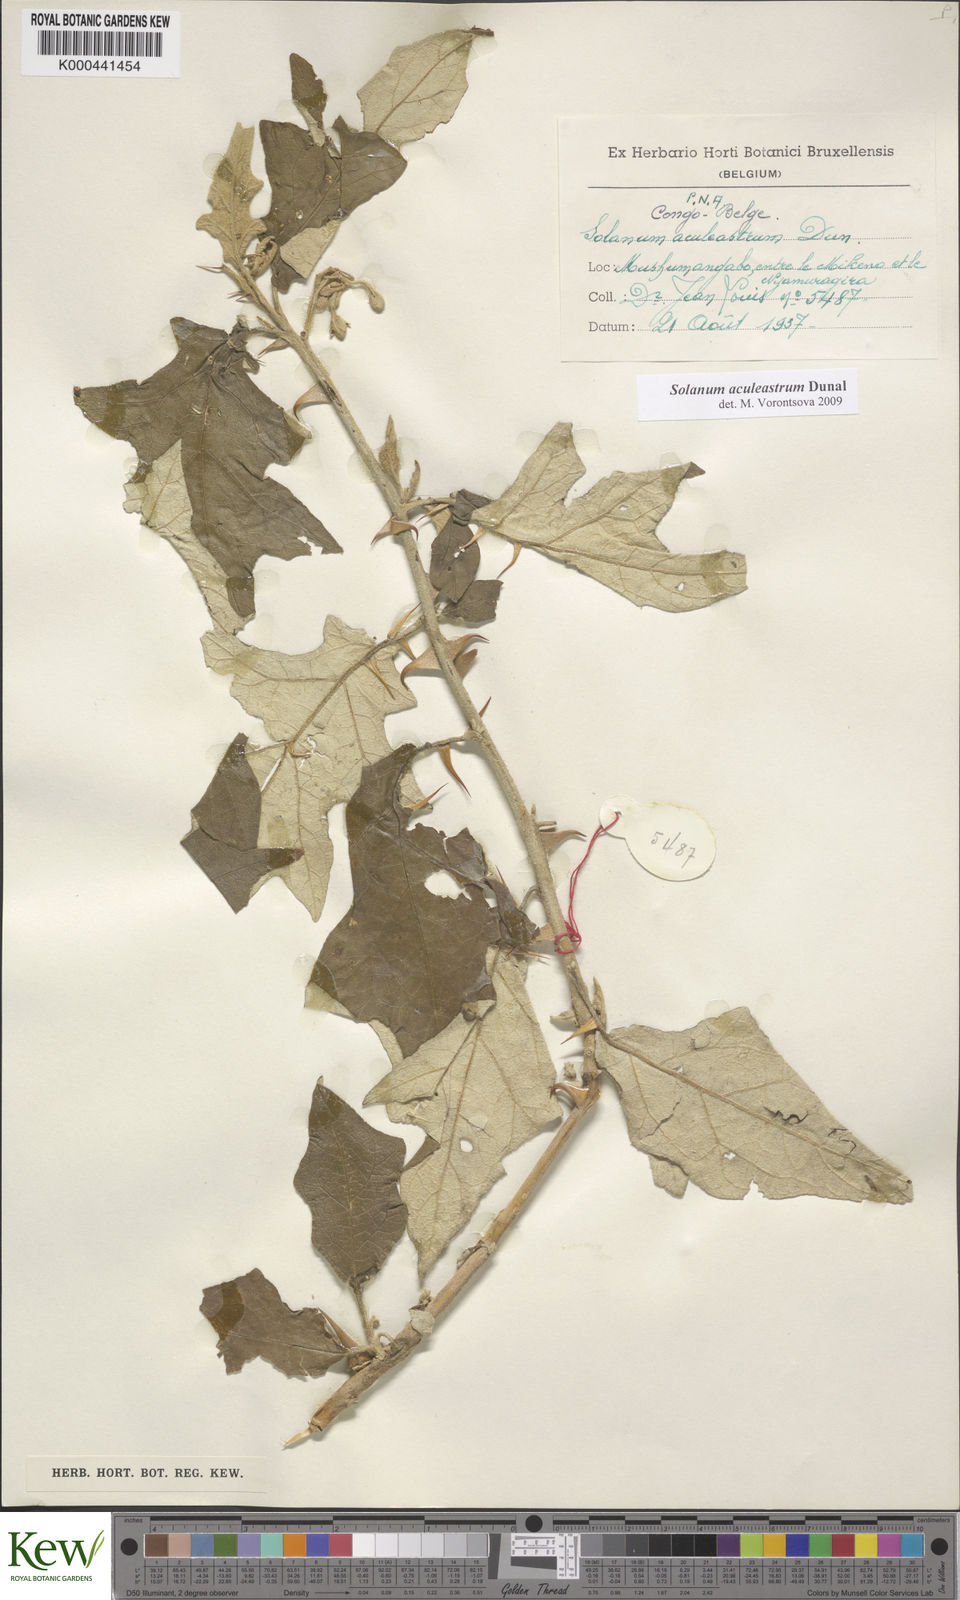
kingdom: Plantae
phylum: Tracheophyta
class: Magnoliopsida
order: Solanales
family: Solanaceae
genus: Solanum
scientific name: Solanum aculeastrum
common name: Goat bitter-apple
